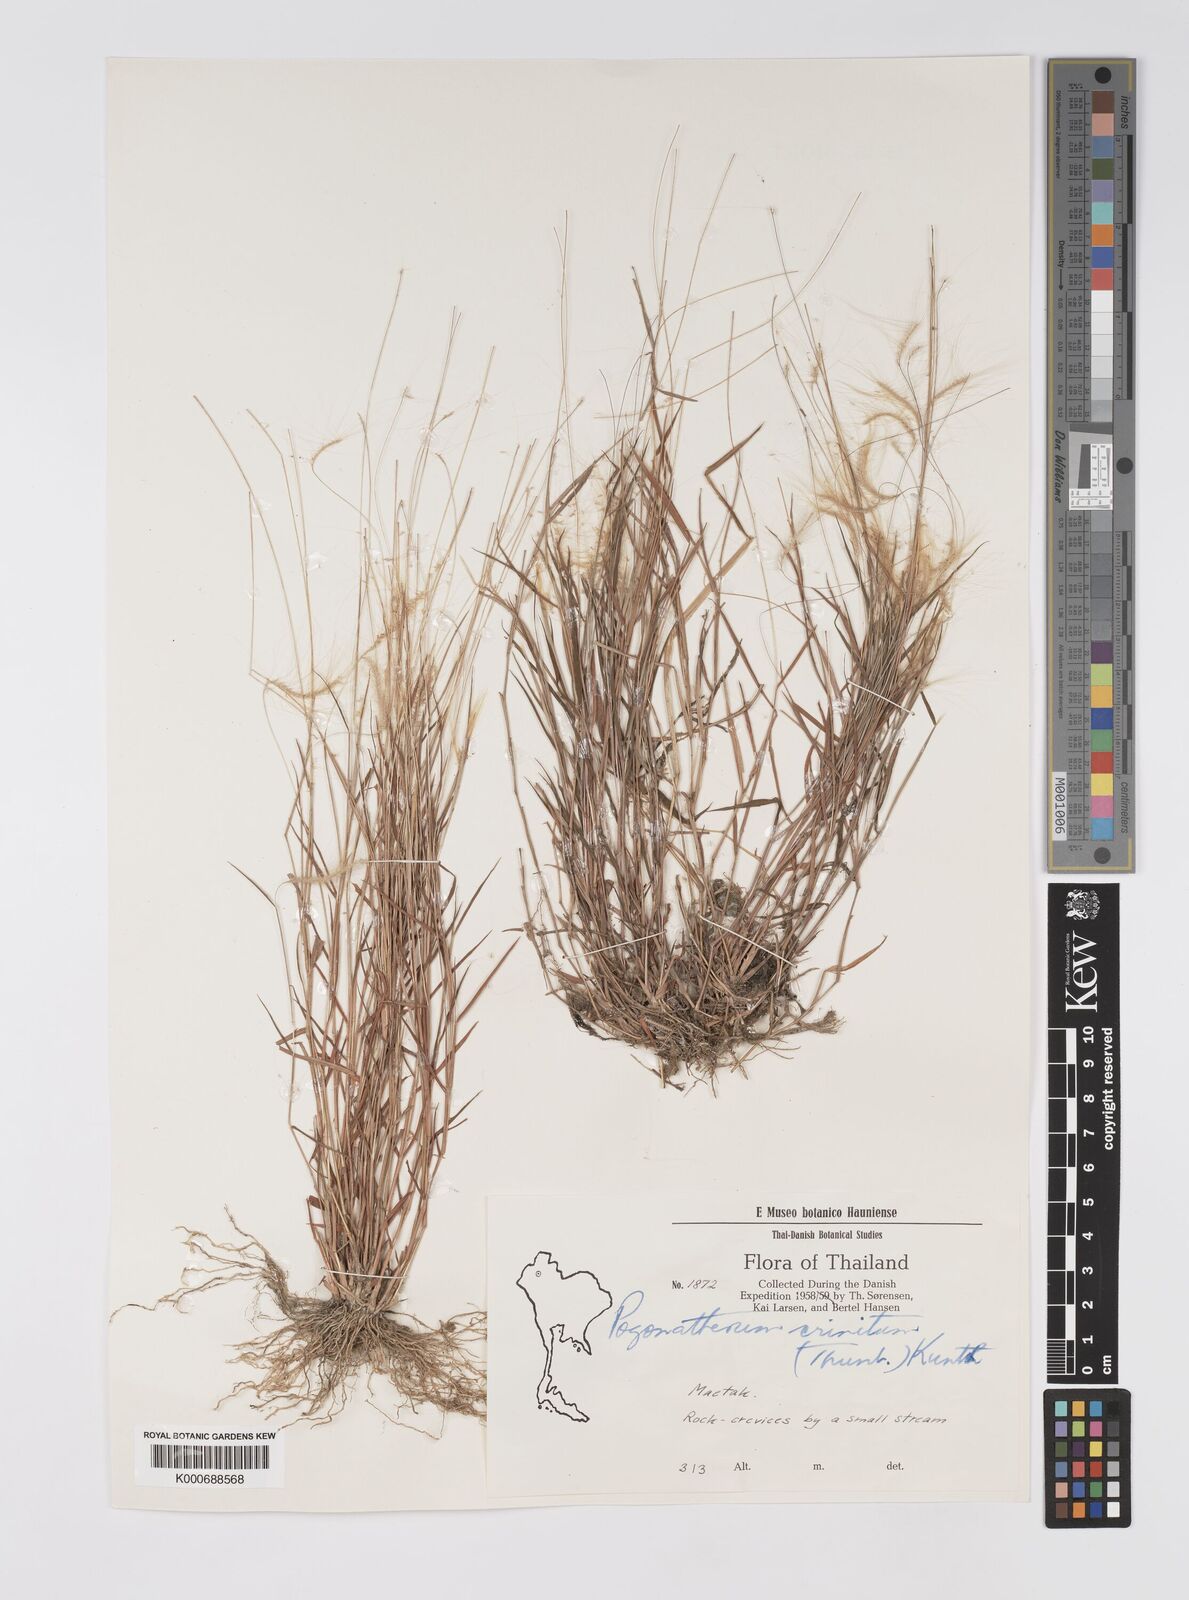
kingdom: Plantae
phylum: Tracheophyta
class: Liliopsida
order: Poales
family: Poaceae
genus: Pogonatherum
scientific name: Pogonatherum crinitum
